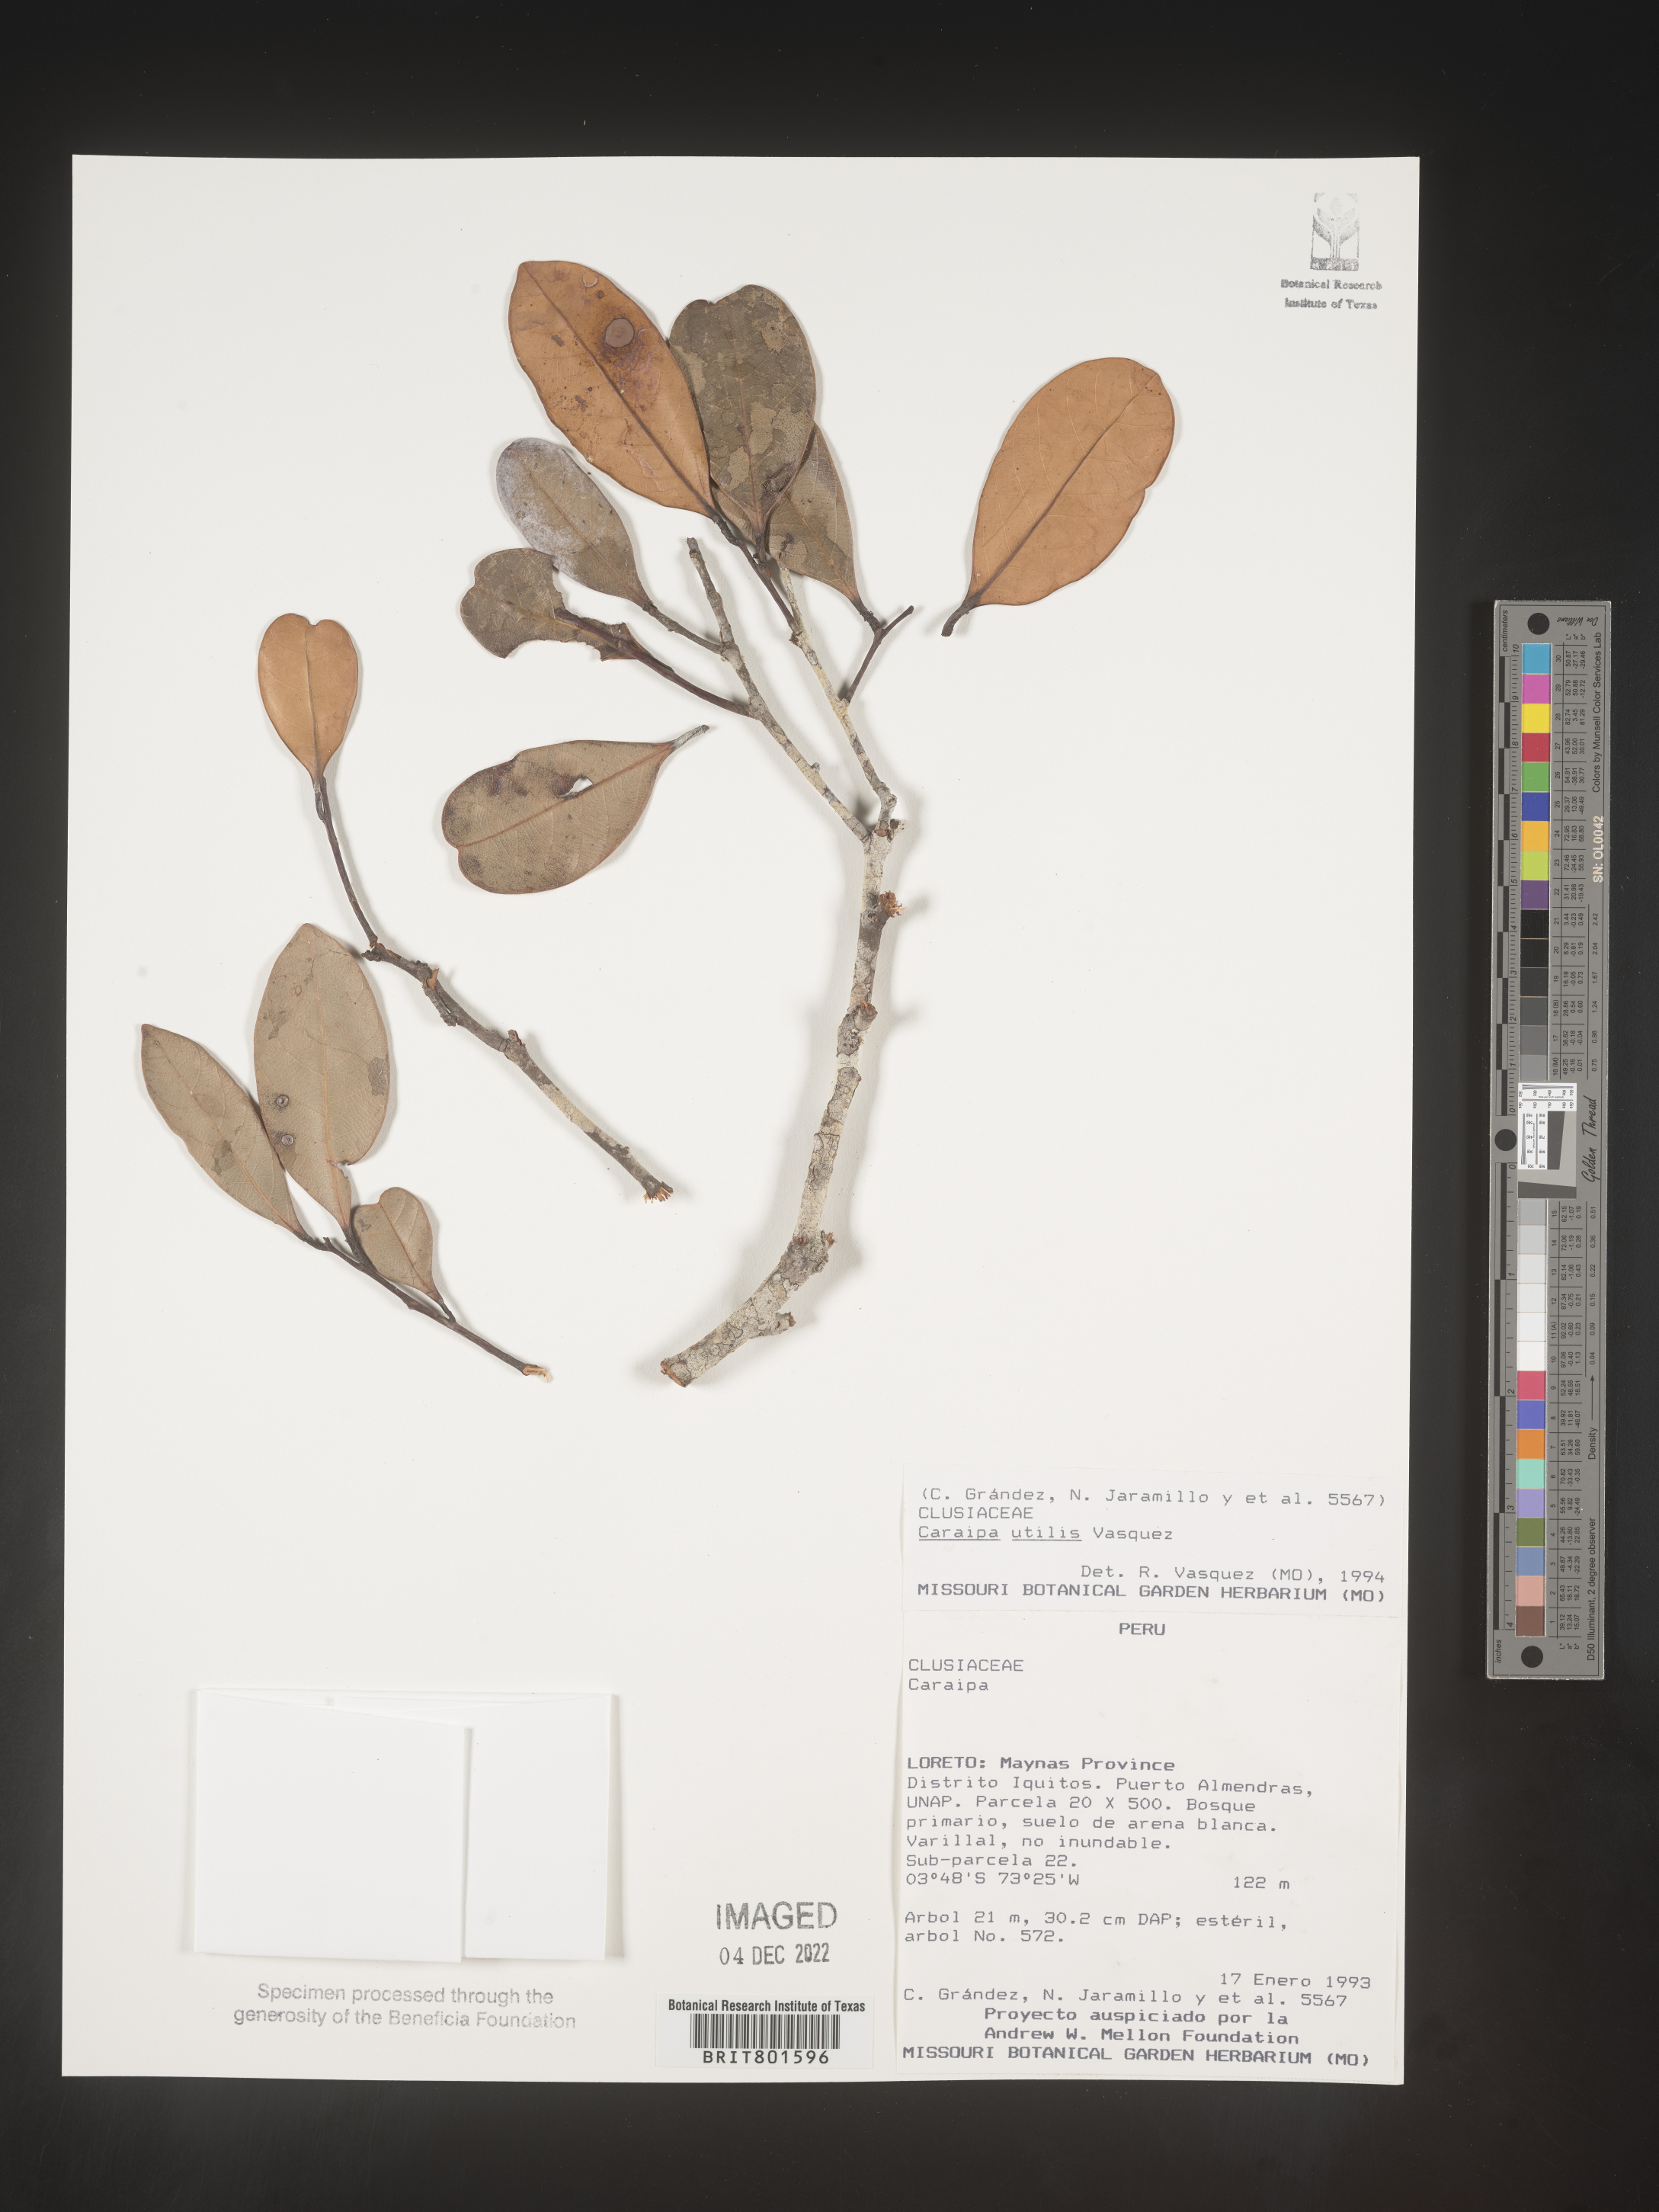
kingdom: Plantae
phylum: Tracheophyta
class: Magnoliopsida
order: Malpighiales
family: Calophyllaceae
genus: Caraipa
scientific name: Caraipa utilis
